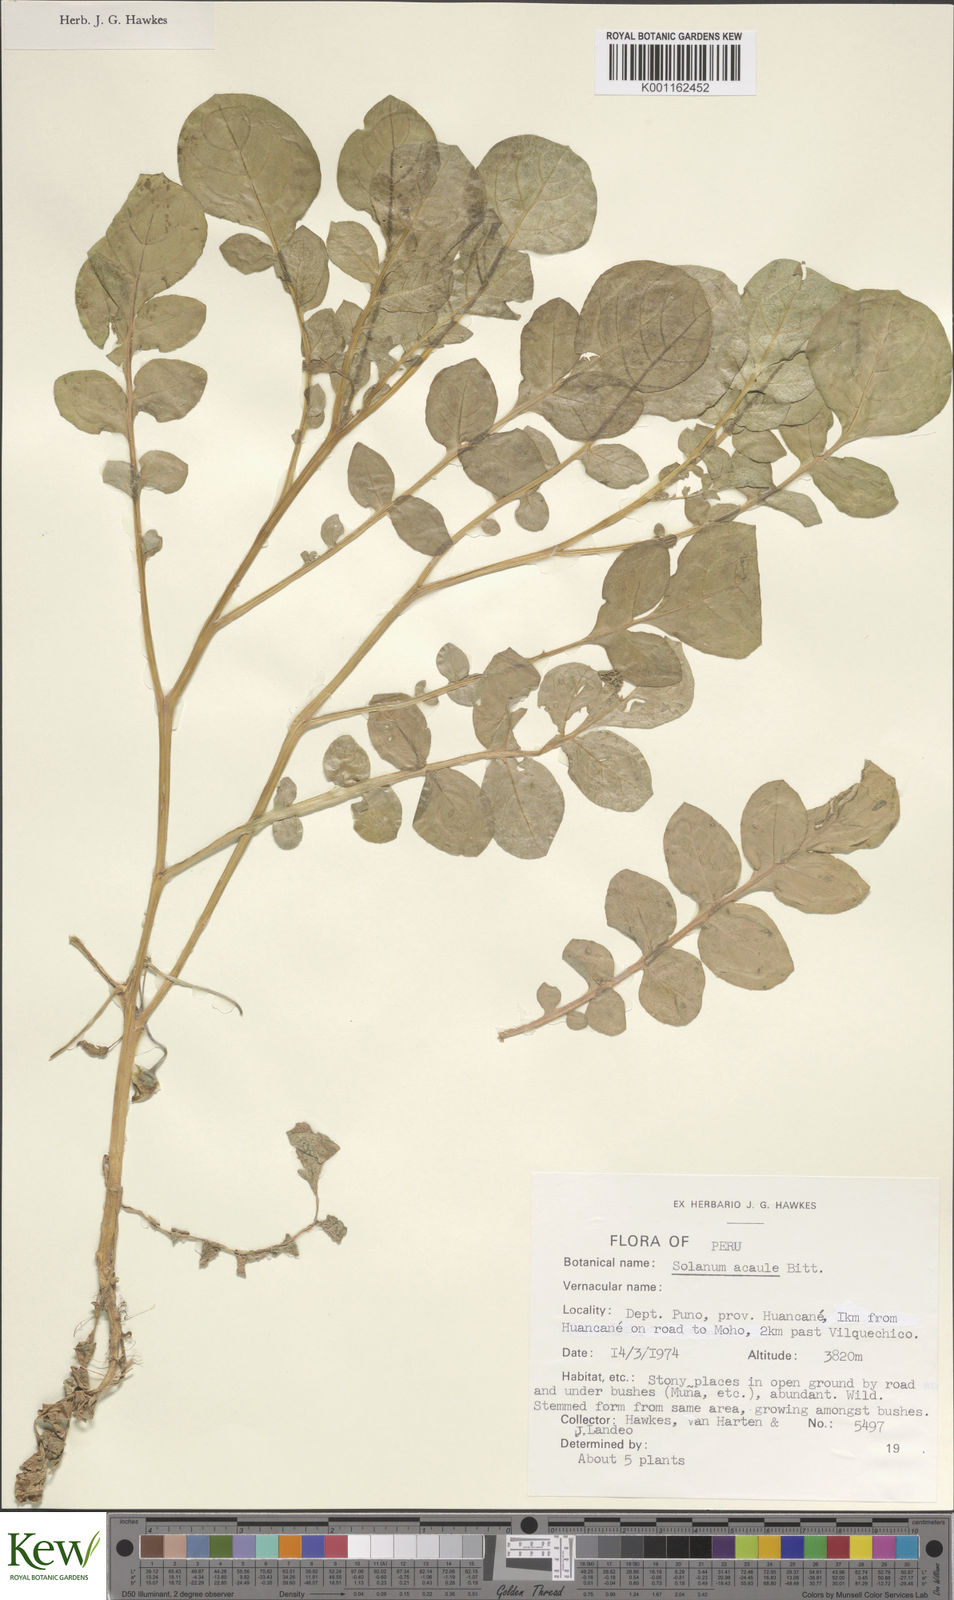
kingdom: Plantae
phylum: Tracheophyta
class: Magnoliopsida
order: Solanales
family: Solanaceae
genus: Solanum
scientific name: Solanum acaule
